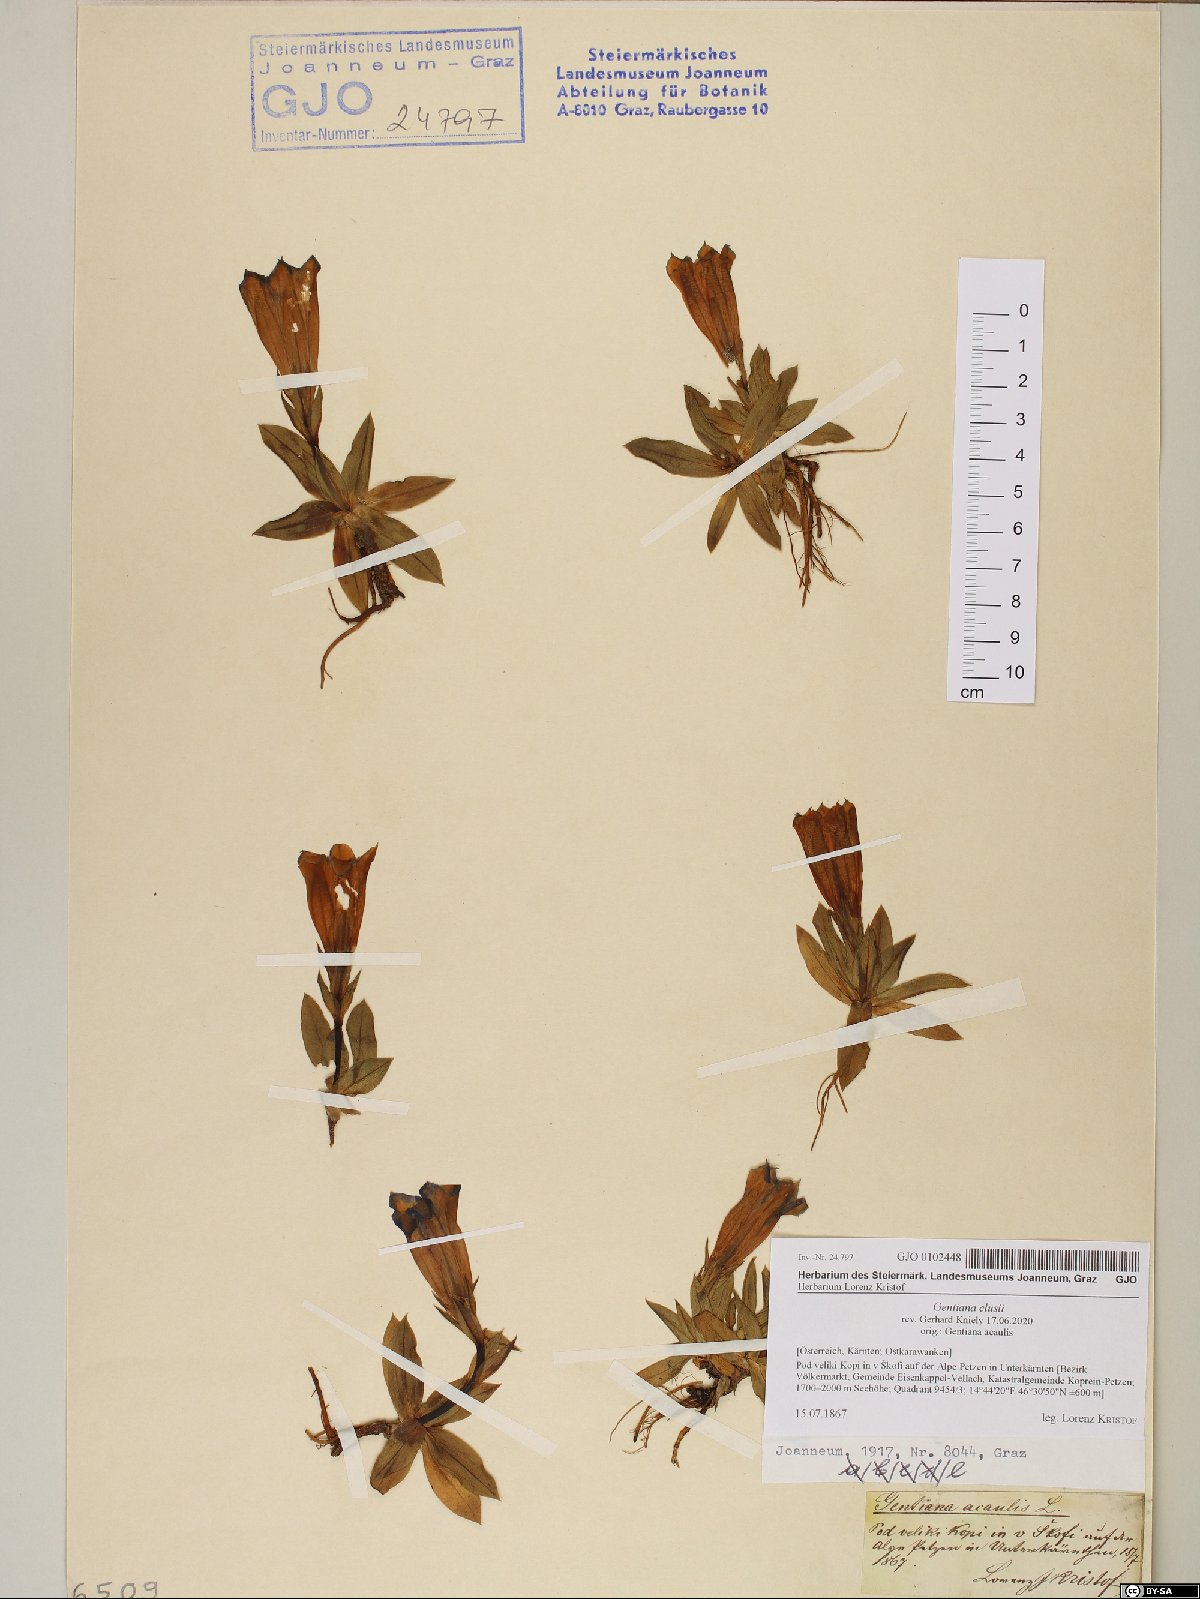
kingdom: Plantae
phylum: Tracheophyta
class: Magnoliopsida
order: Gentianales
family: Gentianaceae
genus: Gentiana
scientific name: Gentiana clusii
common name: Trumpet gentian
